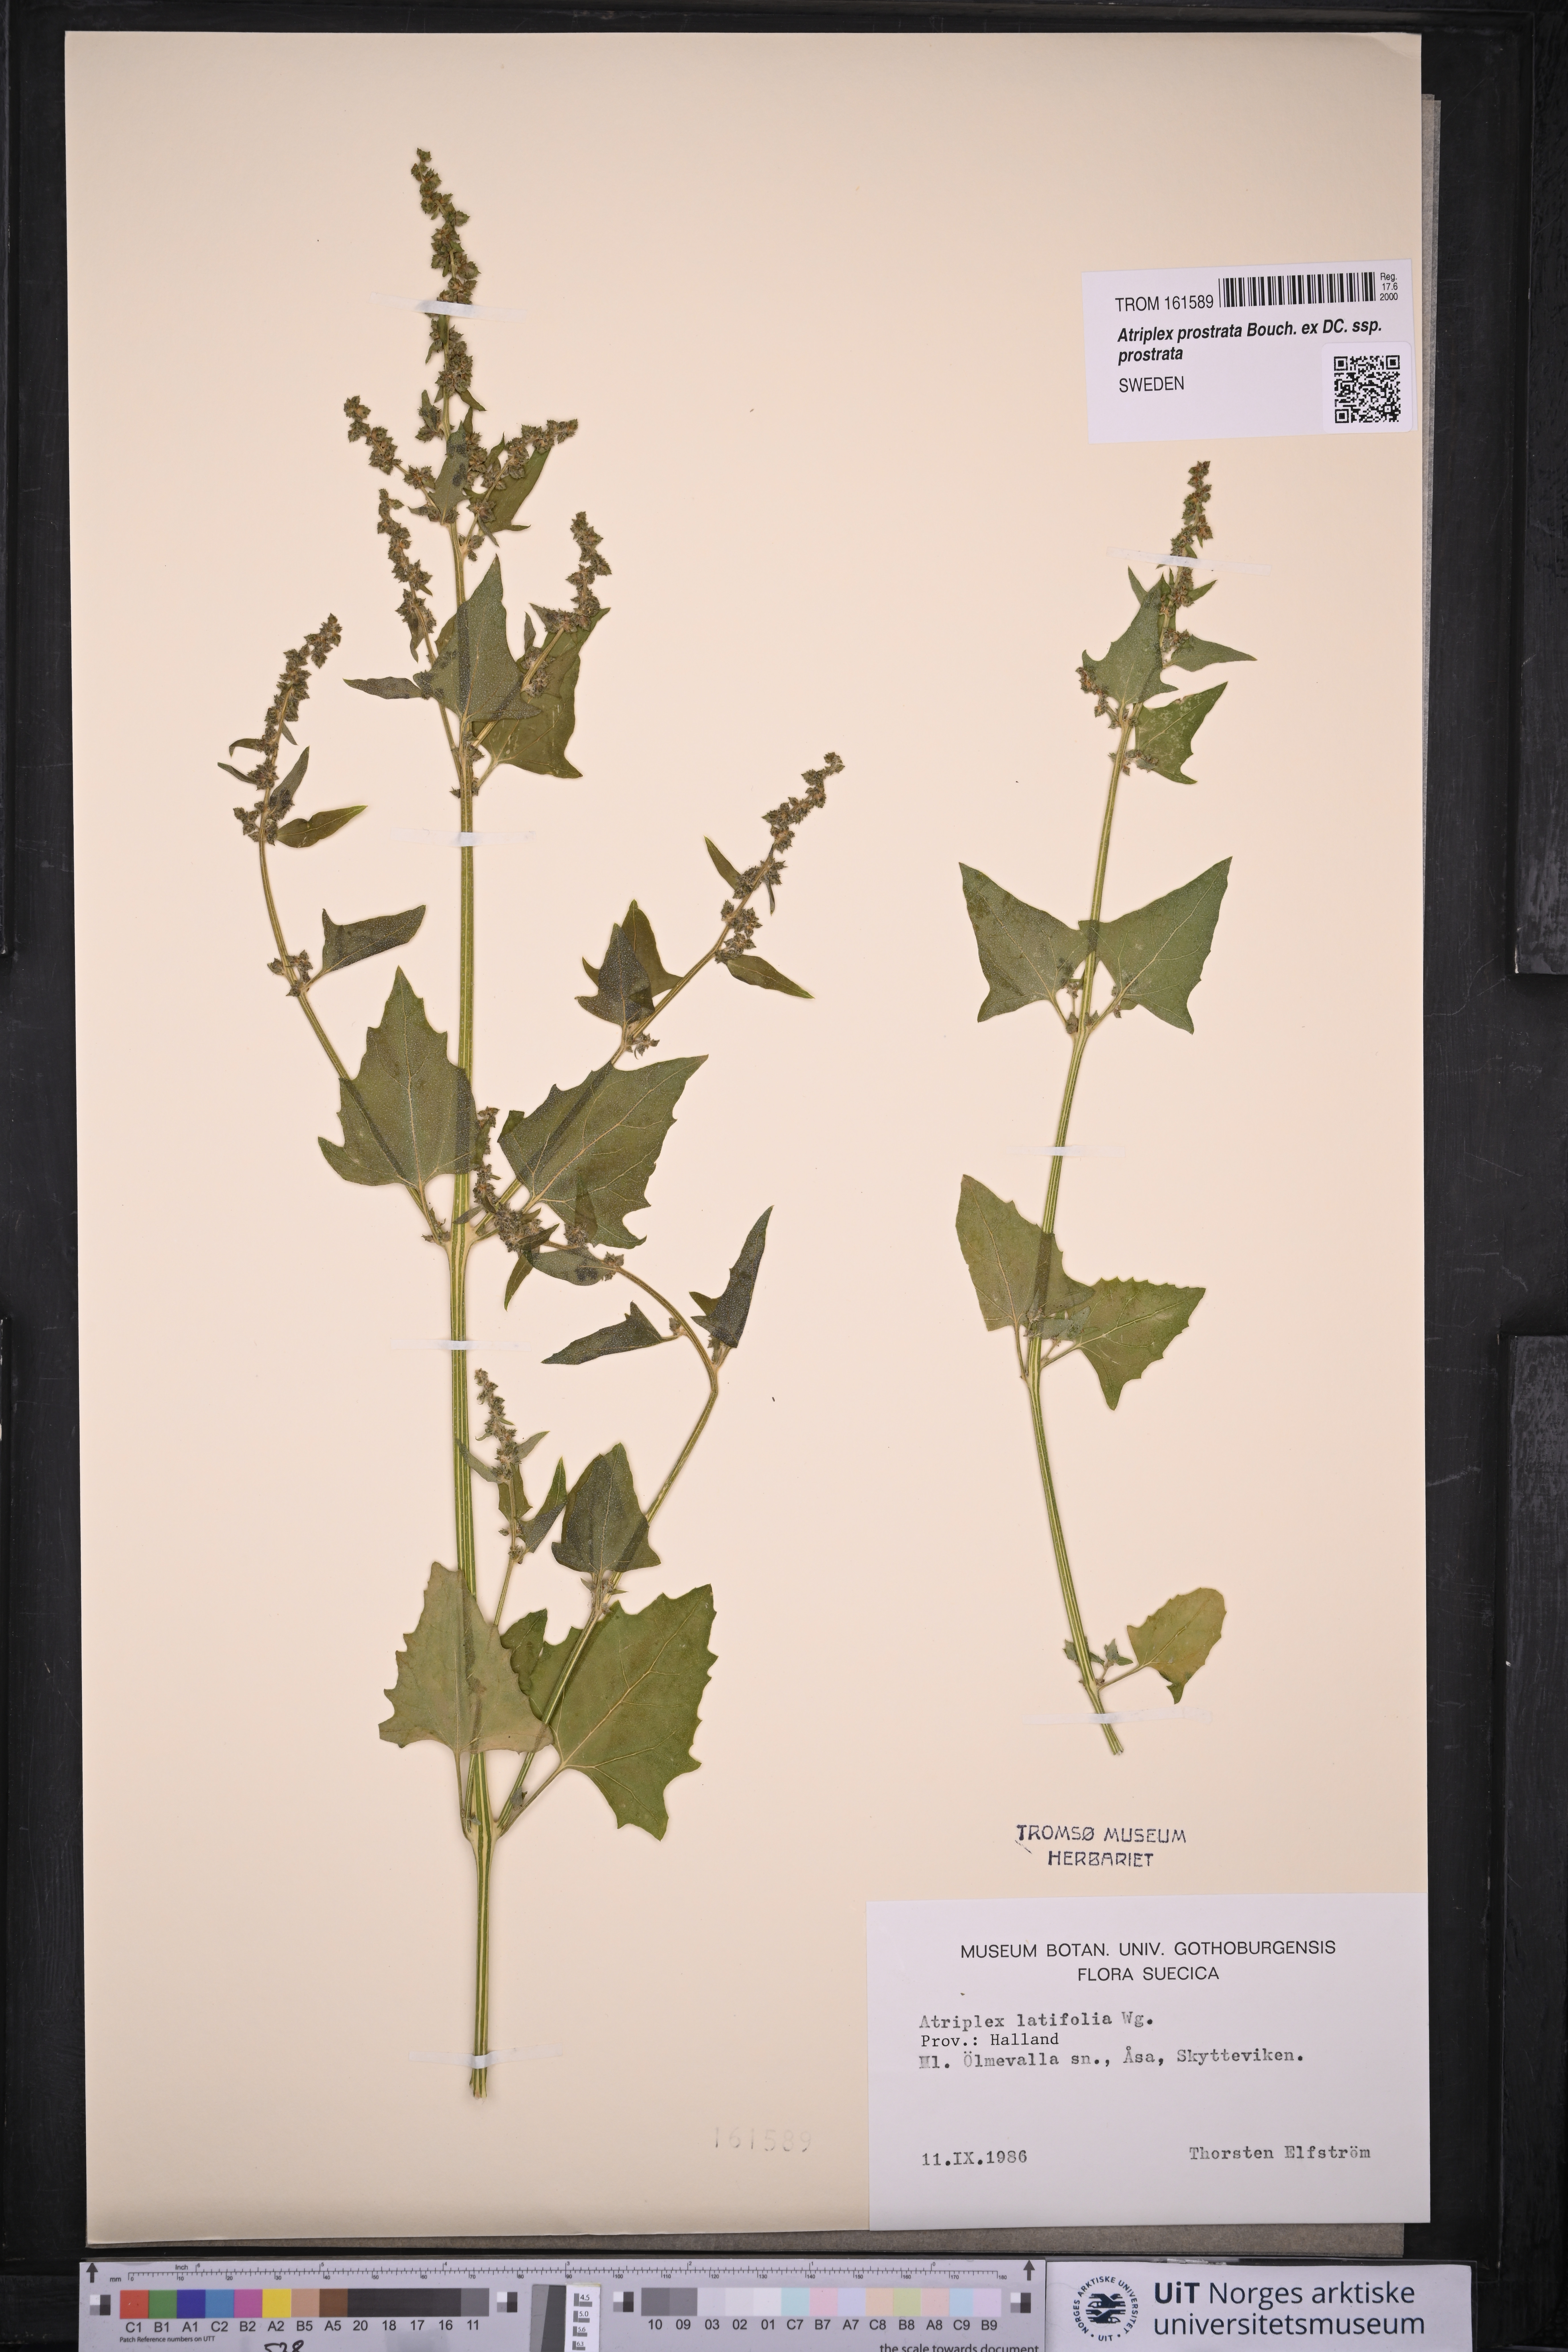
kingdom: Plantae
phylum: Tracheophyta
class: Magnoliopsida
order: Caryophyllales
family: Amaranthaceae
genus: Atriplex
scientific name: Atriplex prostrata
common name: Spear-leaved orache
